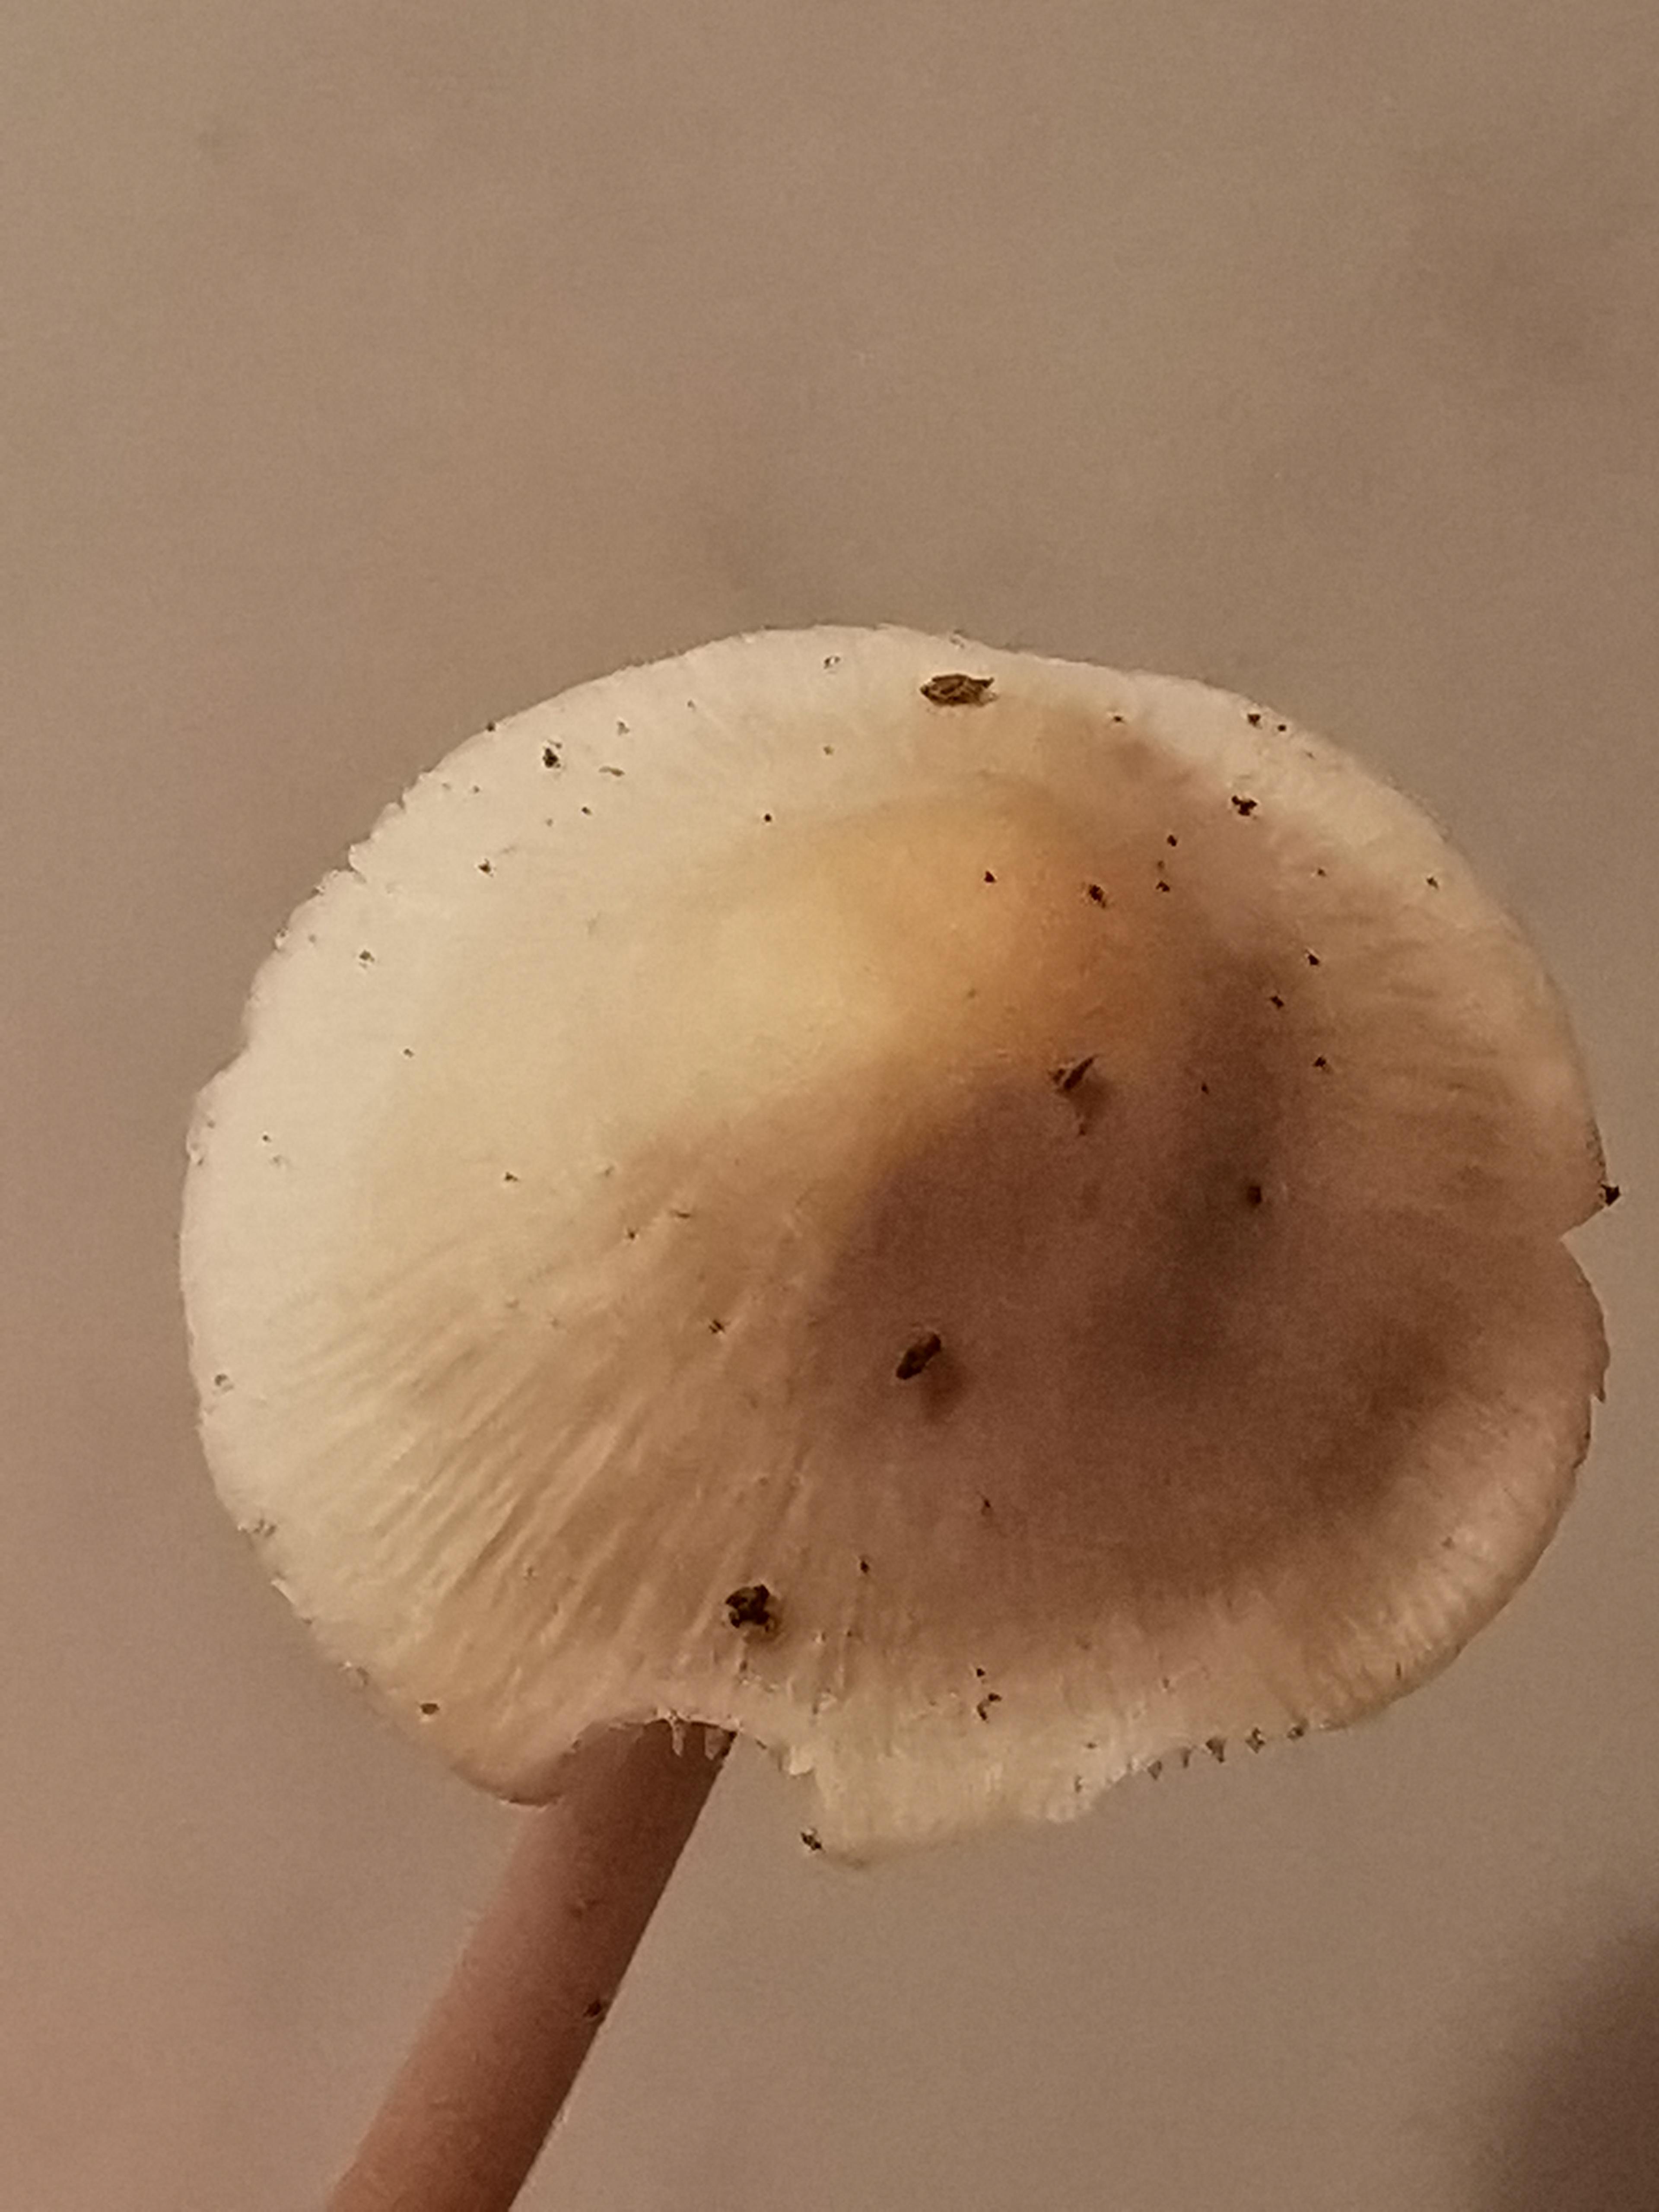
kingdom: Fungi
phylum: Basidiomycota
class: Agaricomycetes
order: Agaricales
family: Mycenaceae
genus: Mycena
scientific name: Mycena galericulata
